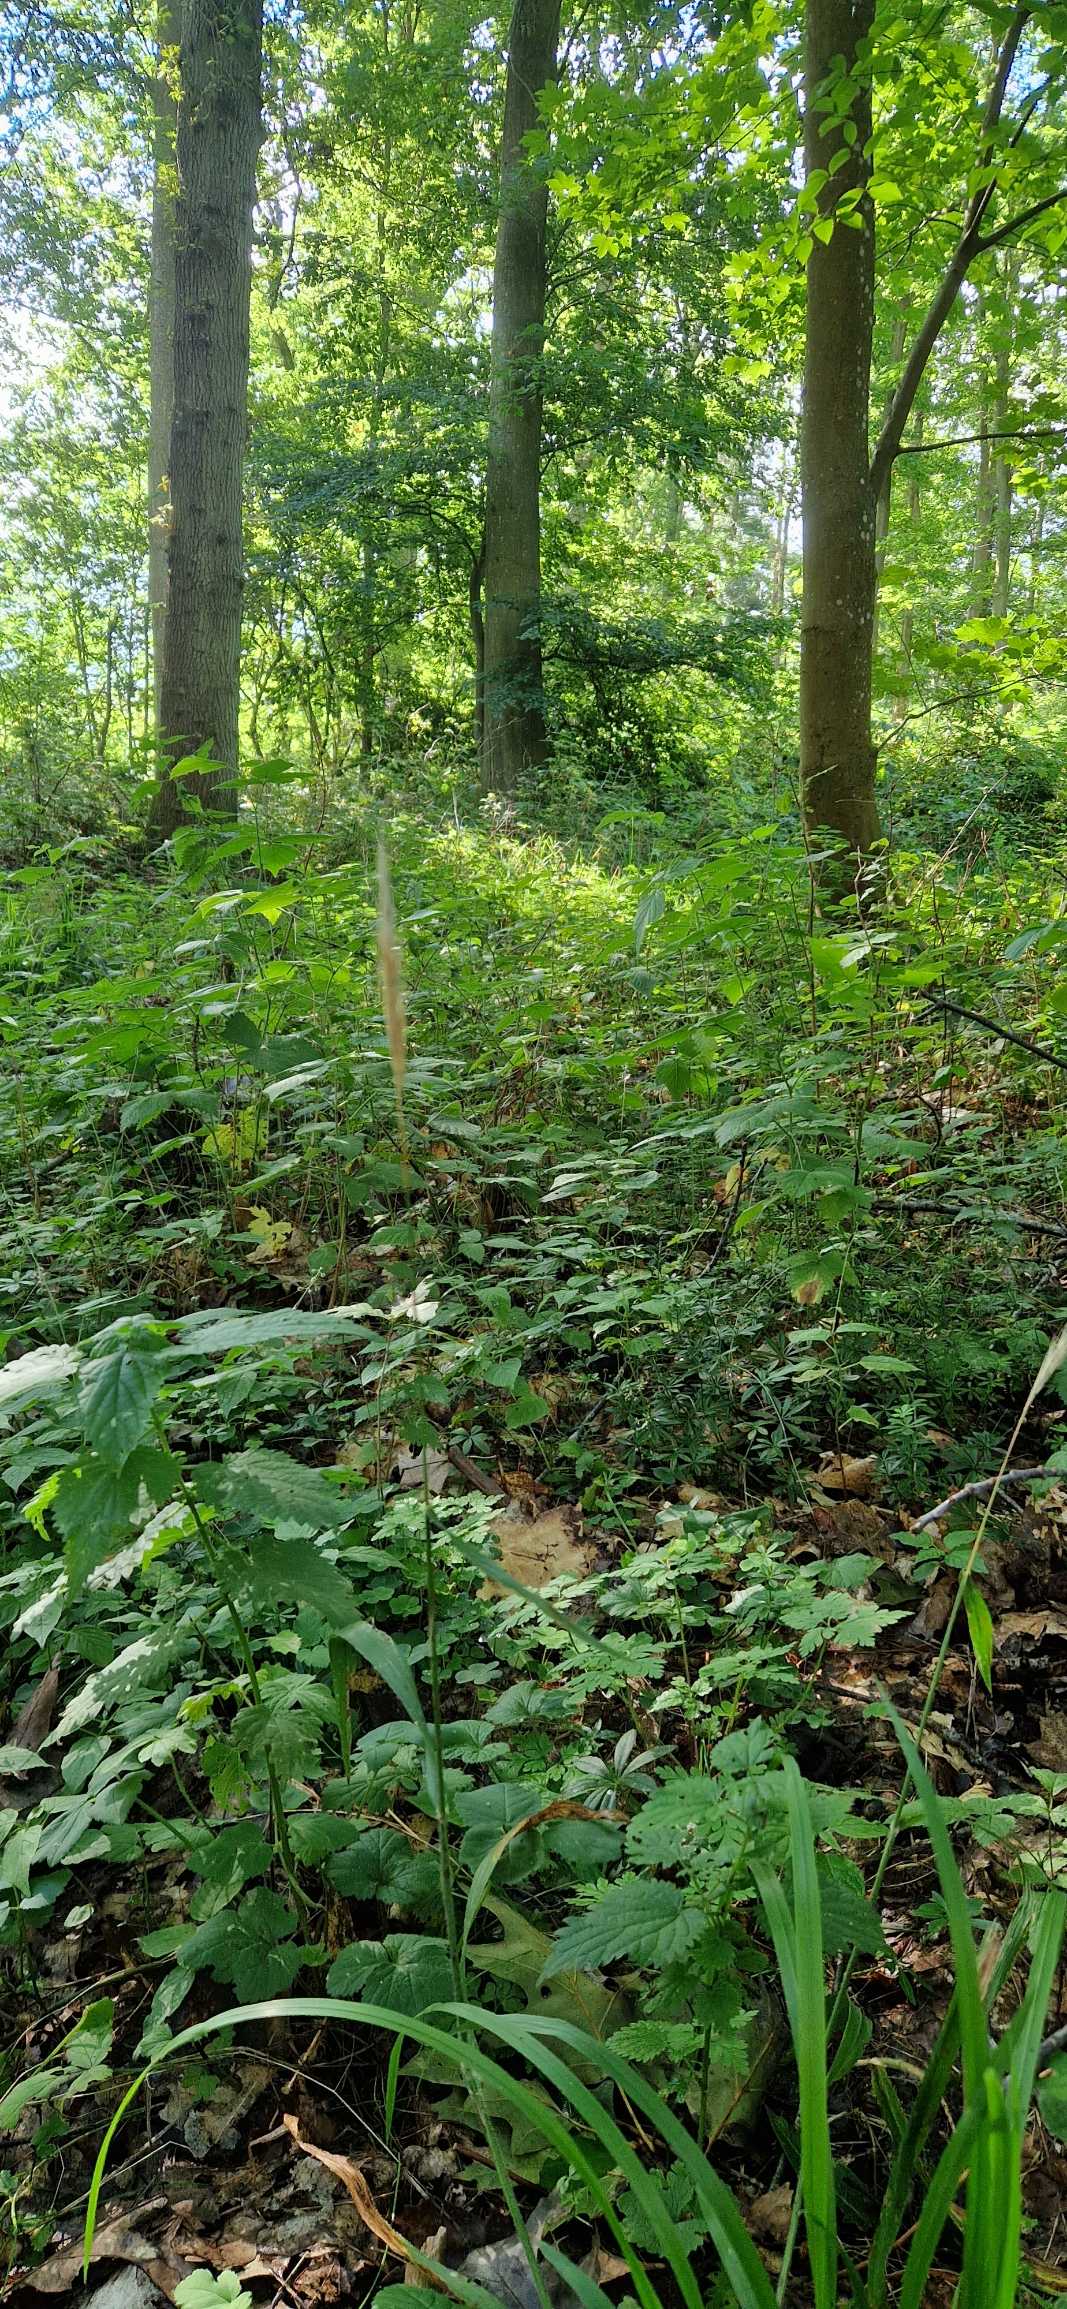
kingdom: Plantae
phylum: Tracheophyta
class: Liliopsida
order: Poales
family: Poaceae
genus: Hordelymus
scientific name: Hordelymus europaeus
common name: Skovbyg
